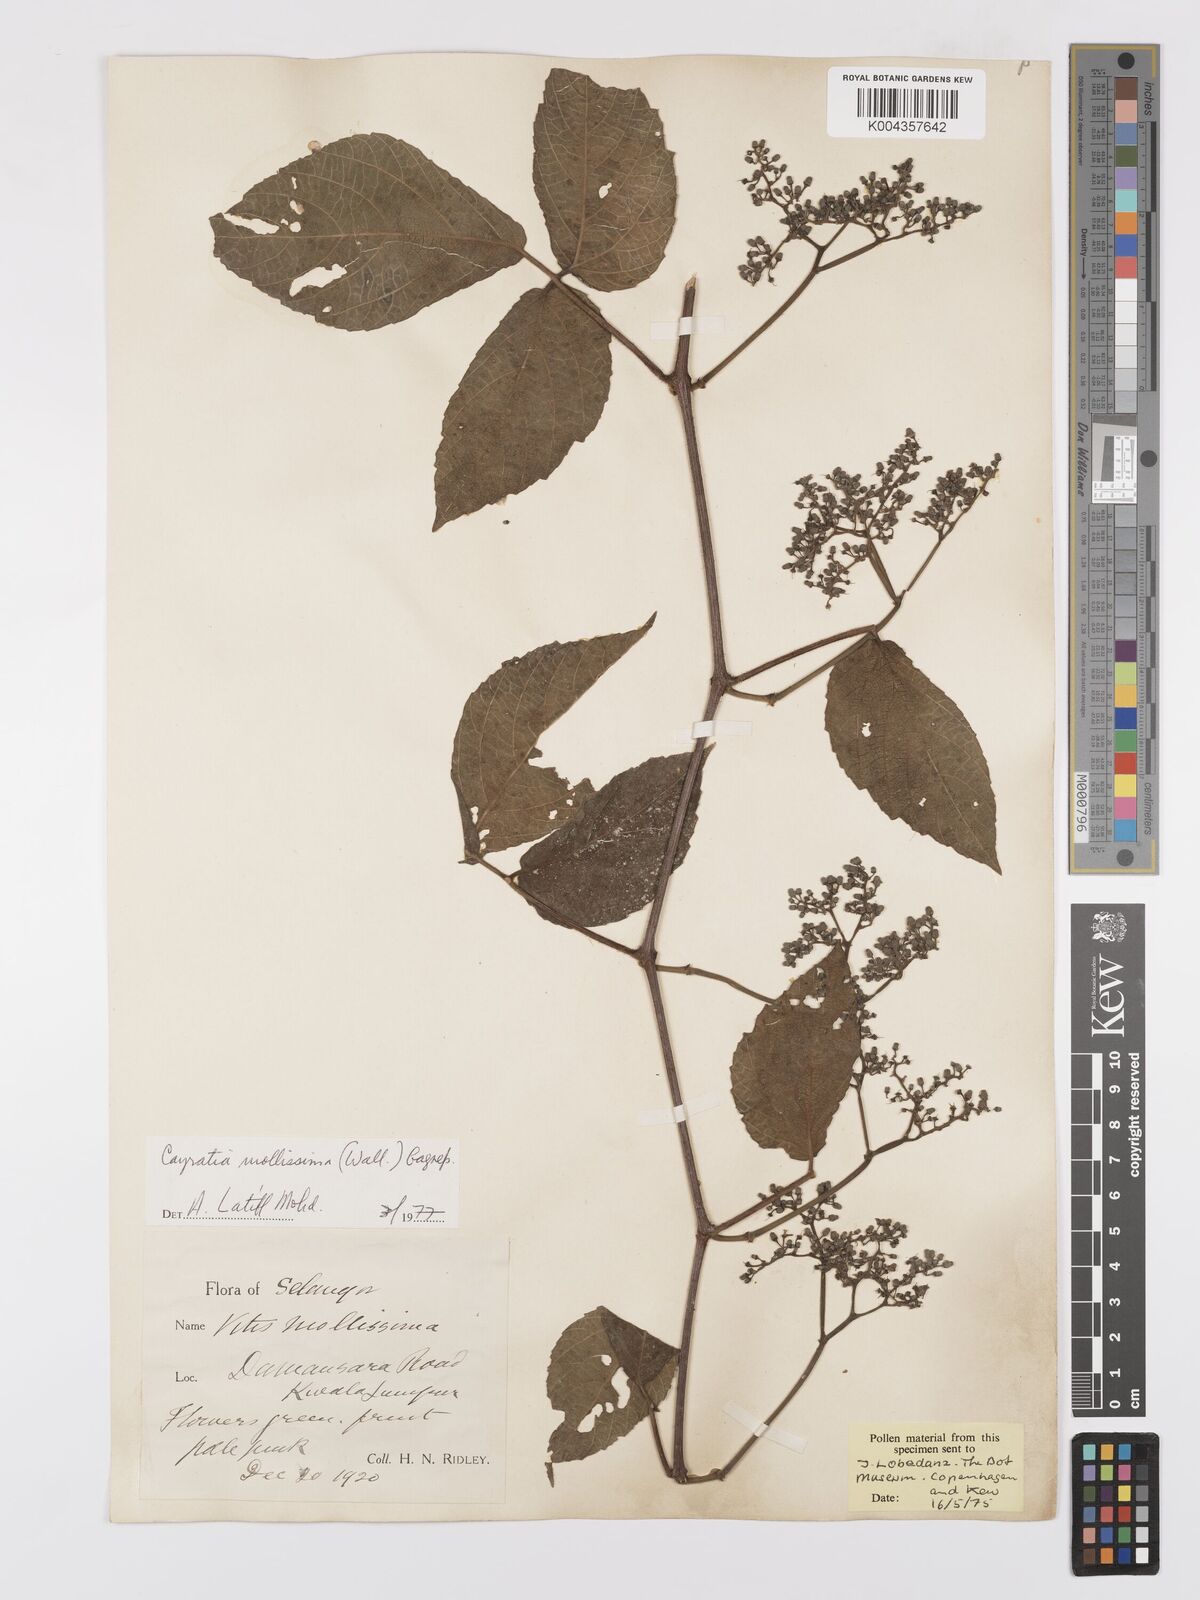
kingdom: Plantae
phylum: Tracheophyta
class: Magnoliopsida
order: Vitales
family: Vitaceae
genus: Cayratia
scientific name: Cayratia mollissima
